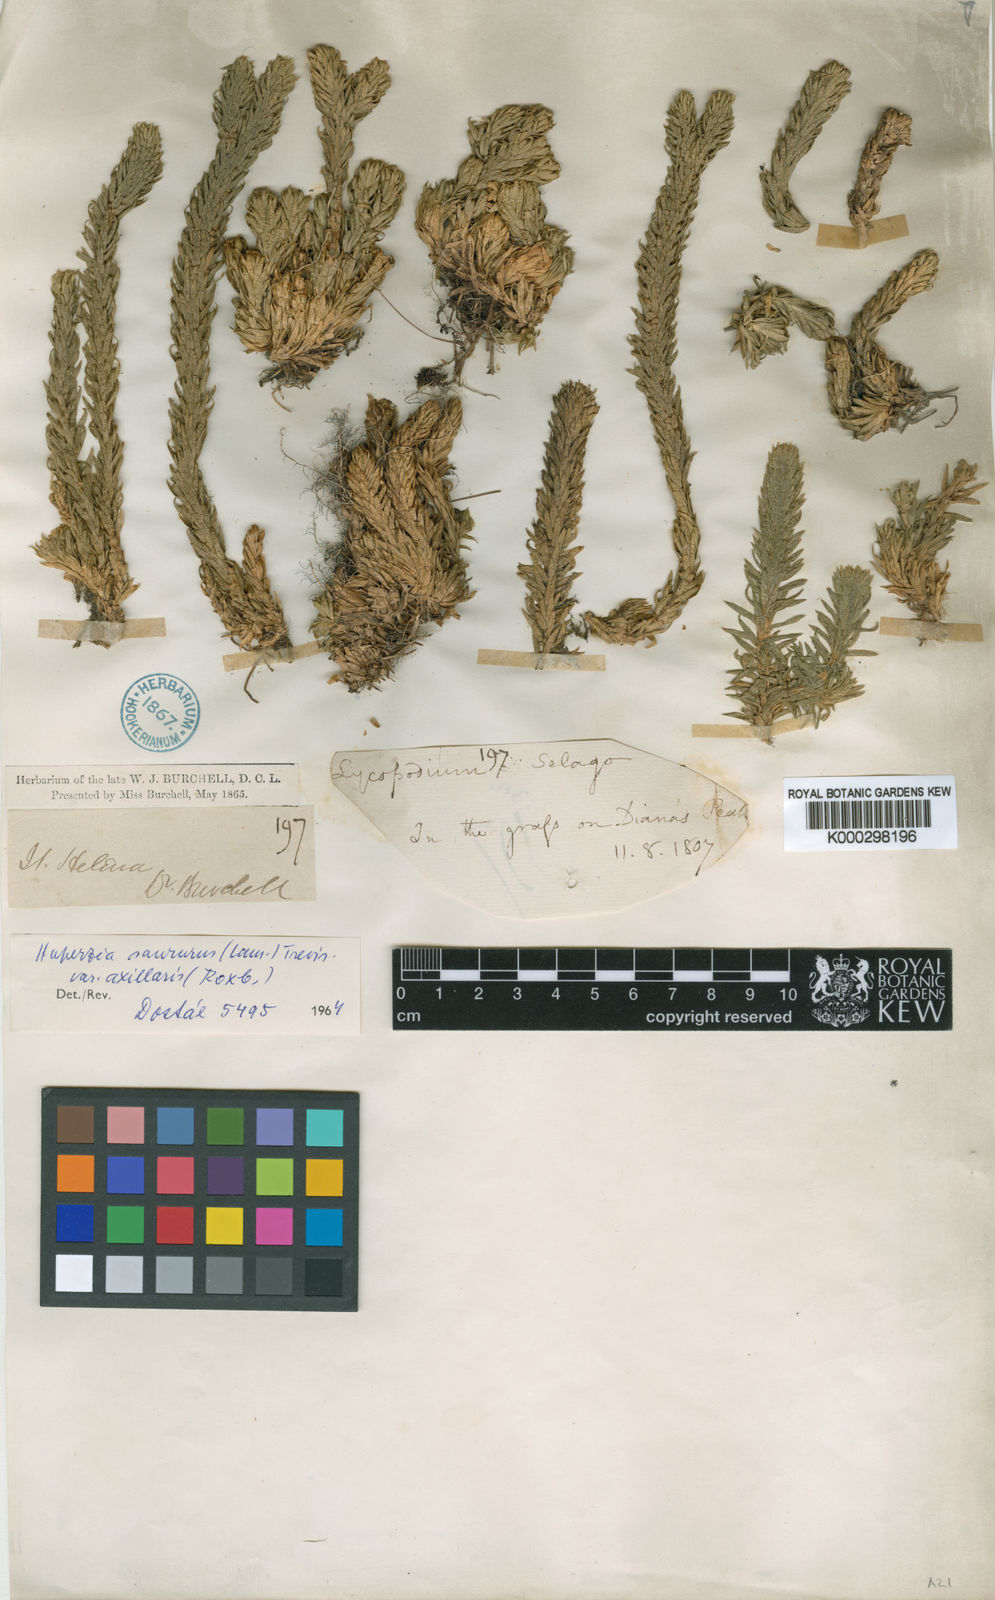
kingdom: Plantae
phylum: Tracheophyta
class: Lycopodiopsida
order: Lycopodiales
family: Lycopodiaceae
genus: Phlegmariurus
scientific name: Phlegmariurus axillaris
